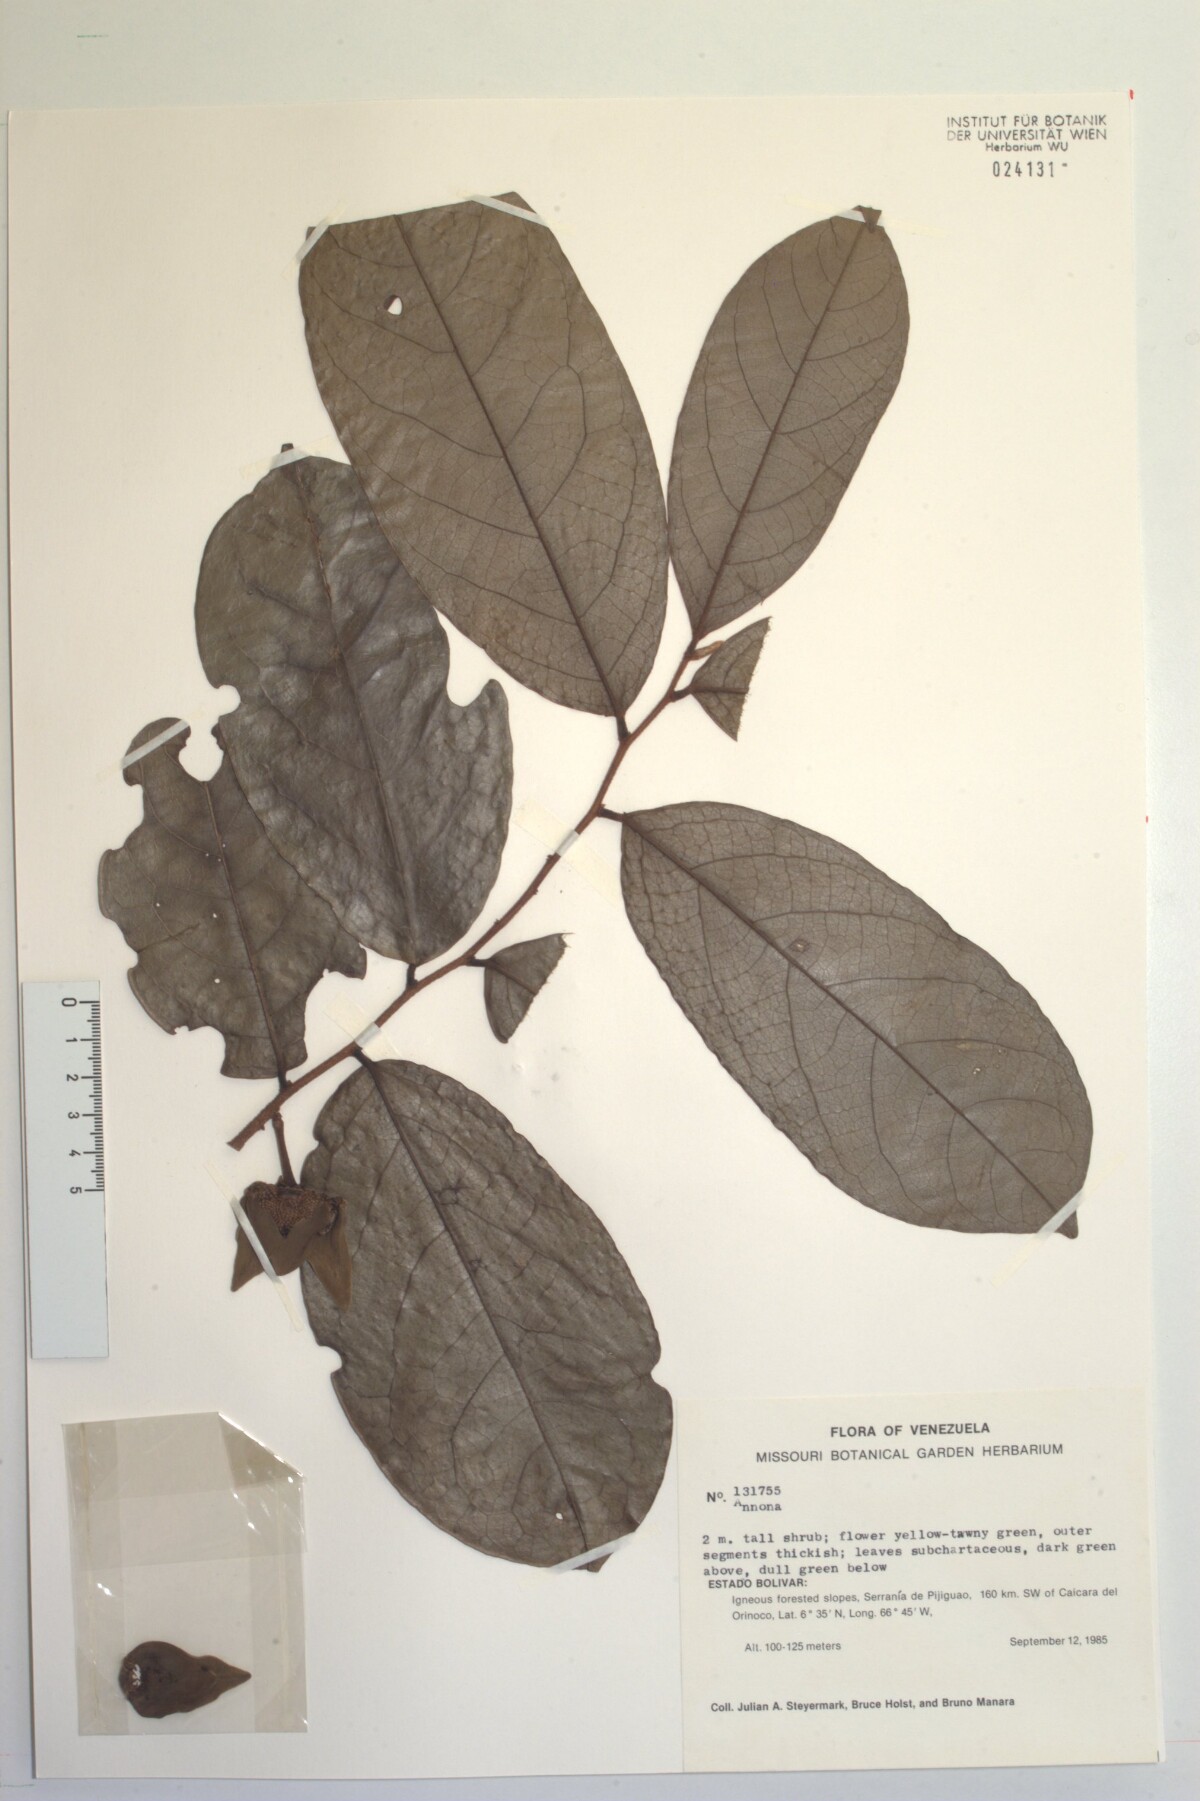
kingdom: Plantae
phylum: Tracheophyta
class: Magnoliopsida
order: Magnoliales
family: Annonaceae
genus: Annona
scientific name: Annona
